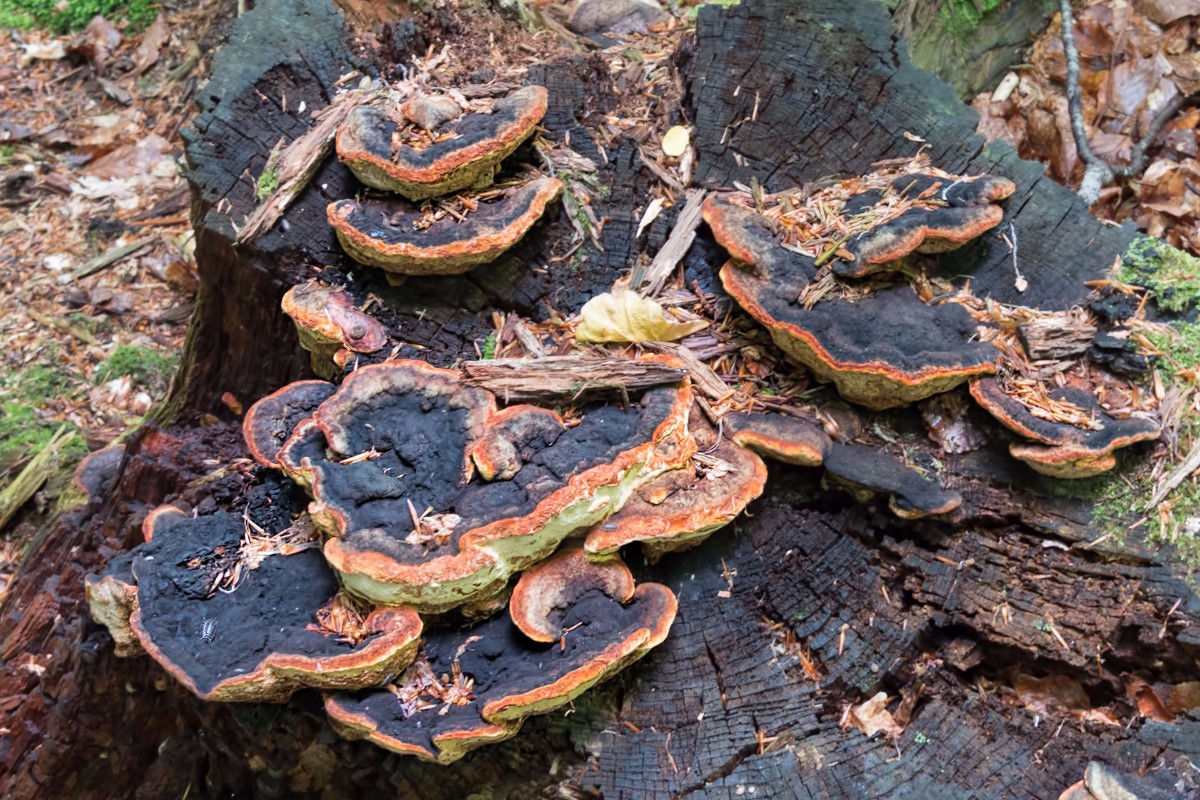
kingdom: Fungi
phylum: Basidiomycota
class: Agaricomycetes
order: Gloeophyllales
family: Gloeophyllaceae
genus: Gloeophyllum
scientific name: Gloeophyllum odoratum
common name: duftende korkhat
